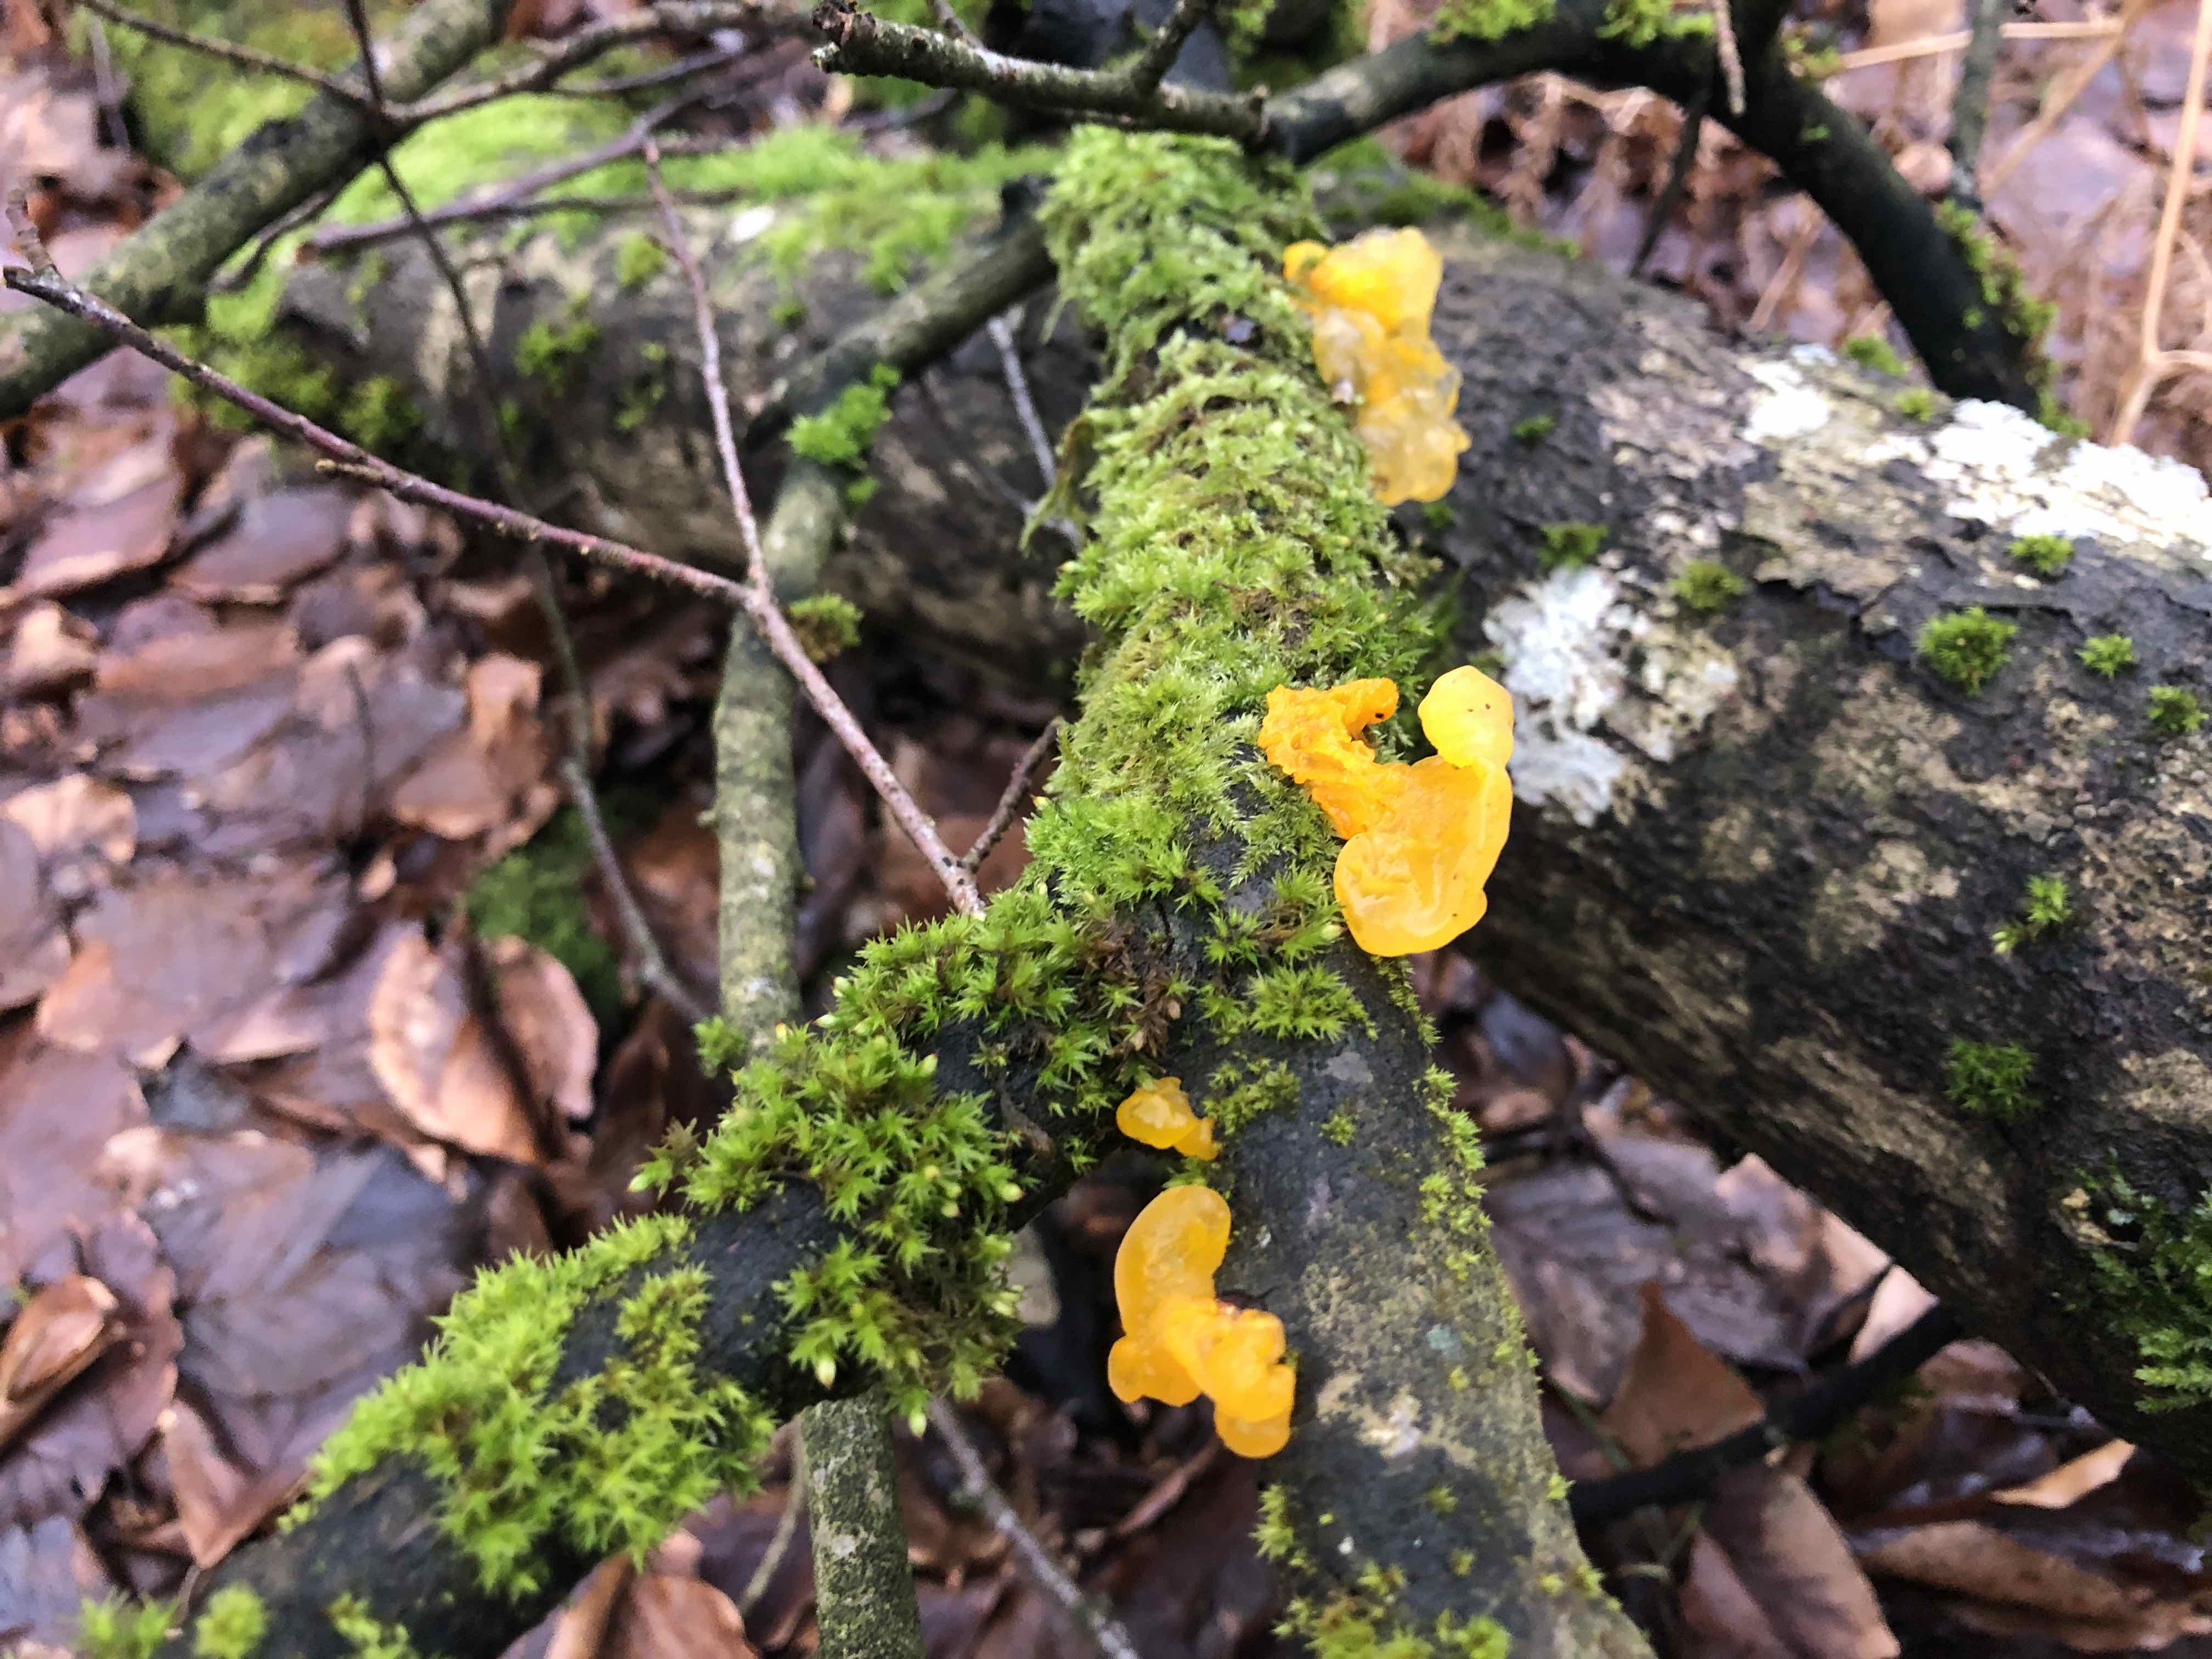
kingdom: Fungi
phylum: Basidiomycota
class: Tremellomycetes
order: Tremellales
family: Tremellaceae
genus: Tremella
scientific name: Tremella mesenterica
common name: gul bævresvamp
